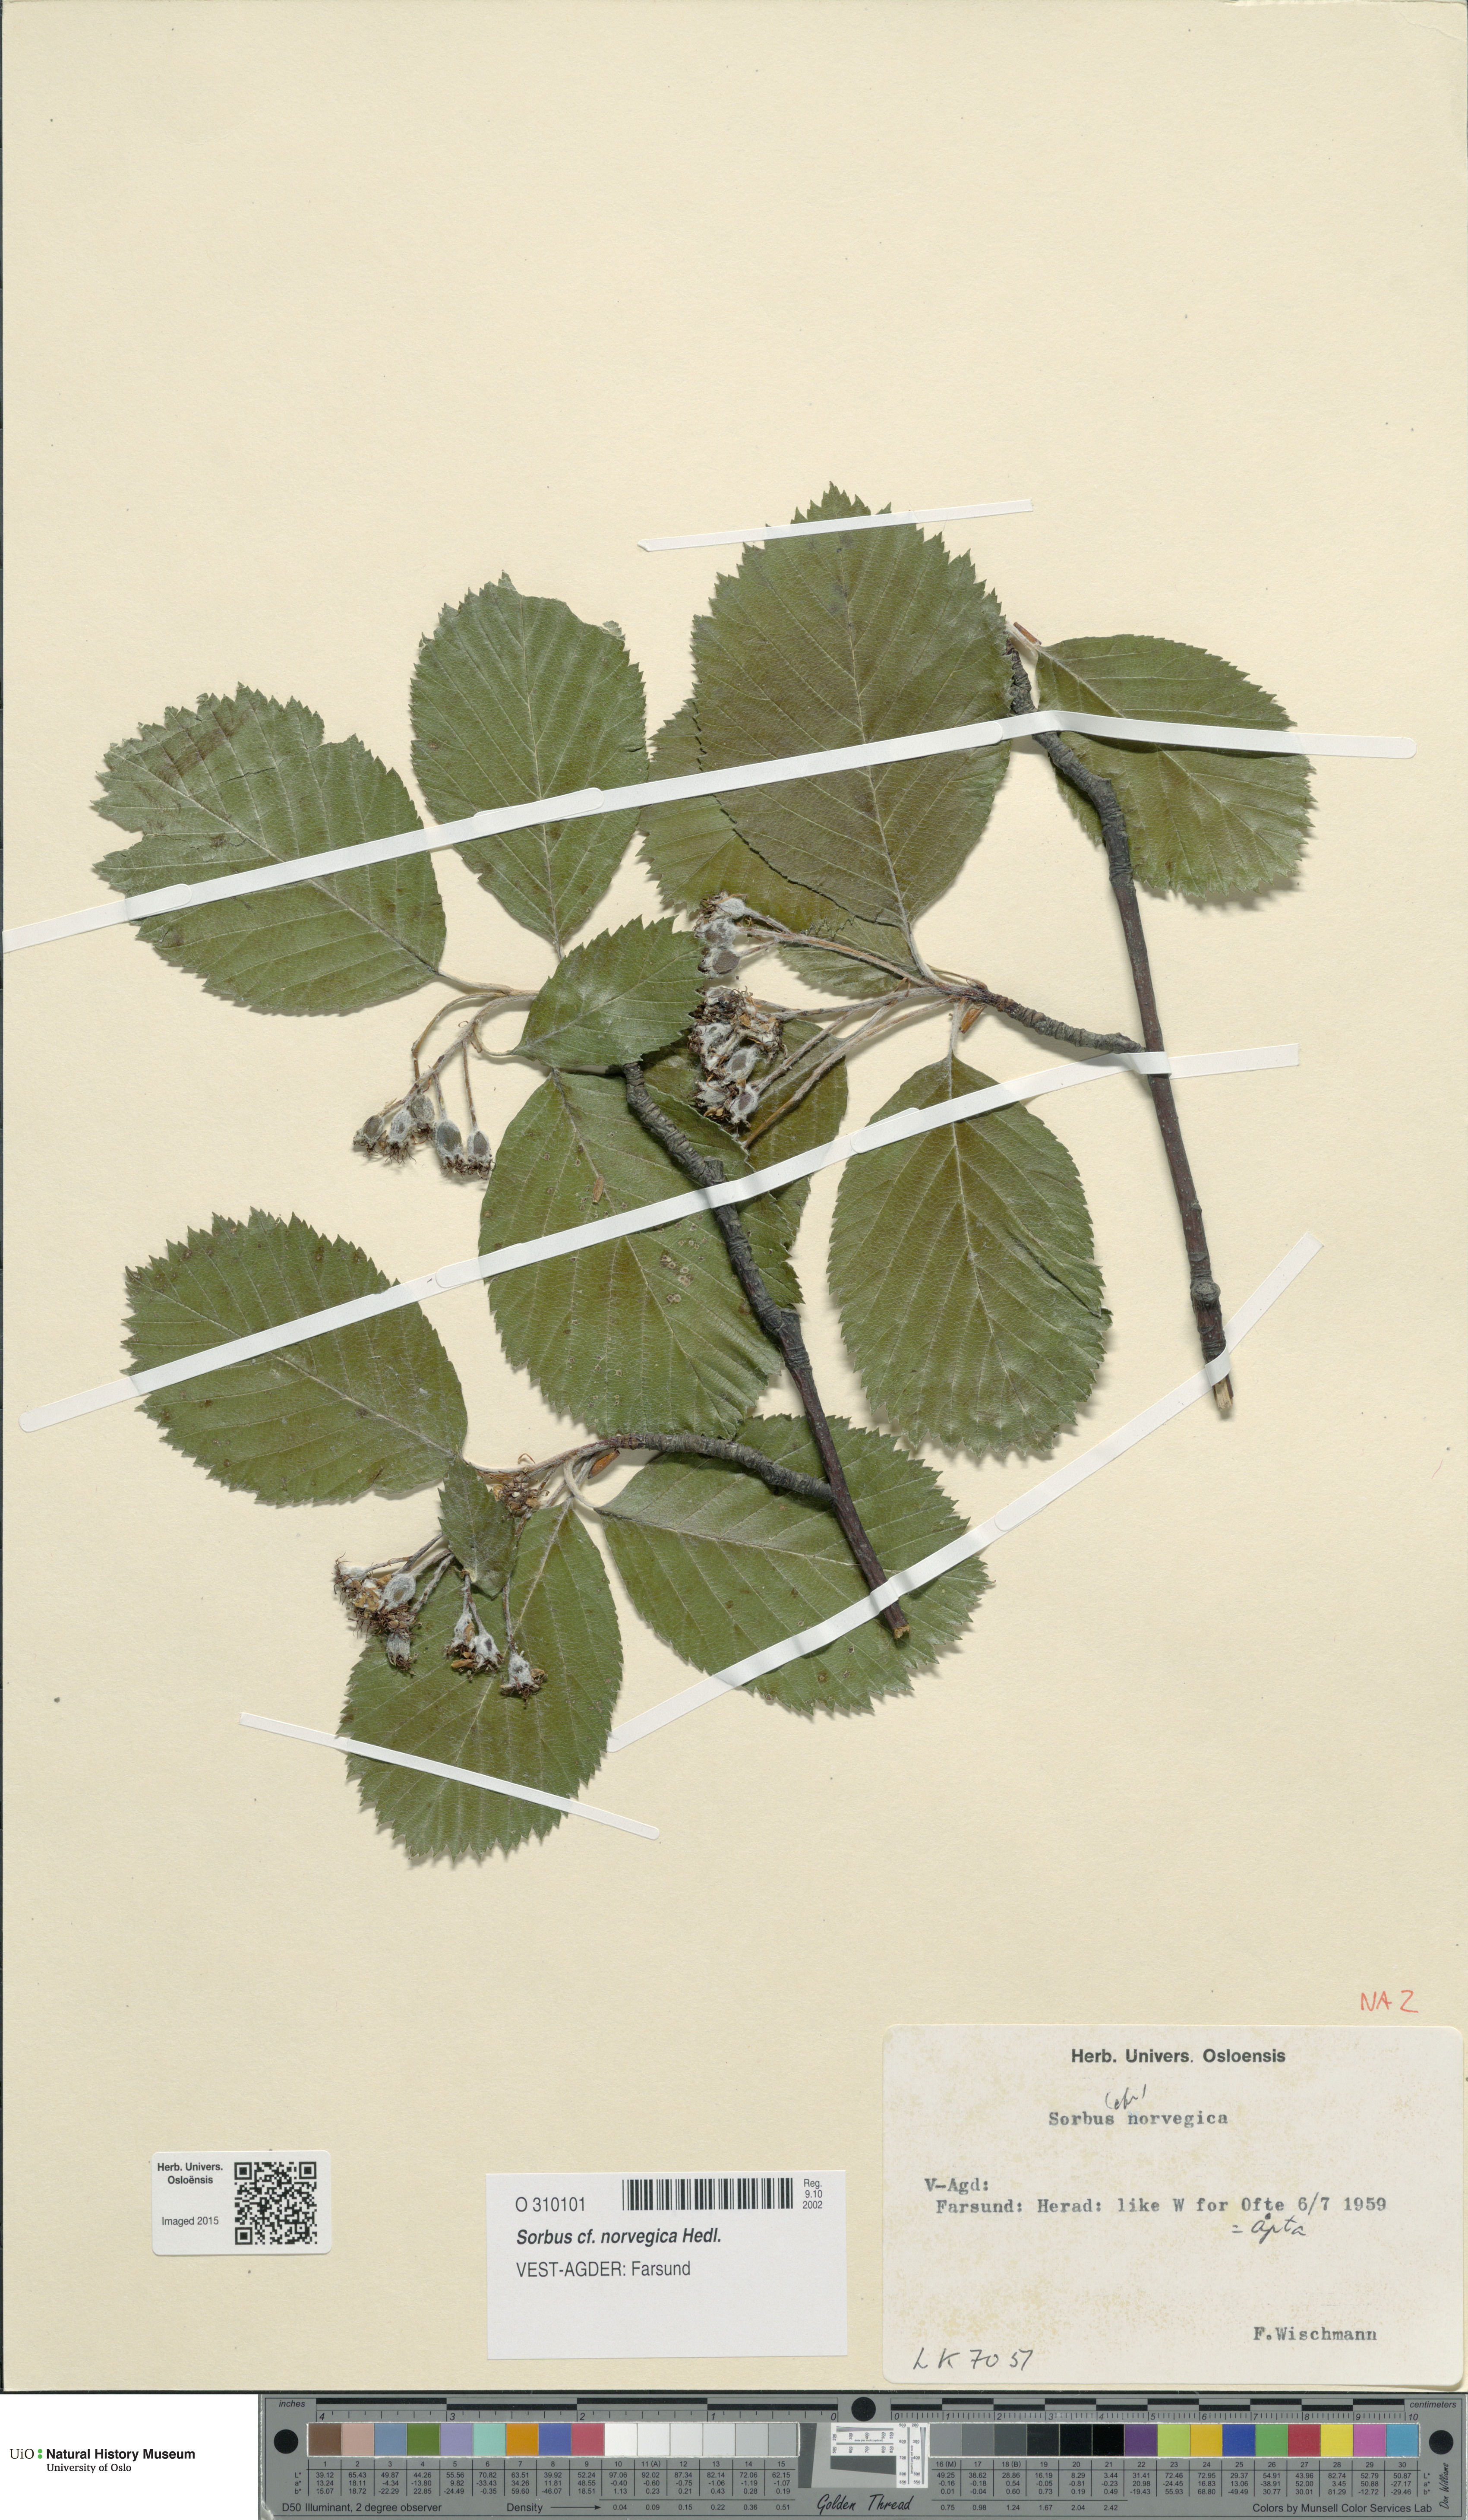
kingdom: Plantae
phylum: Tracheophyta
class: Magnoliopsida
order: Rosales
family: Rosaceae
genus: Aria
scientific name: Aria obtusifolia
